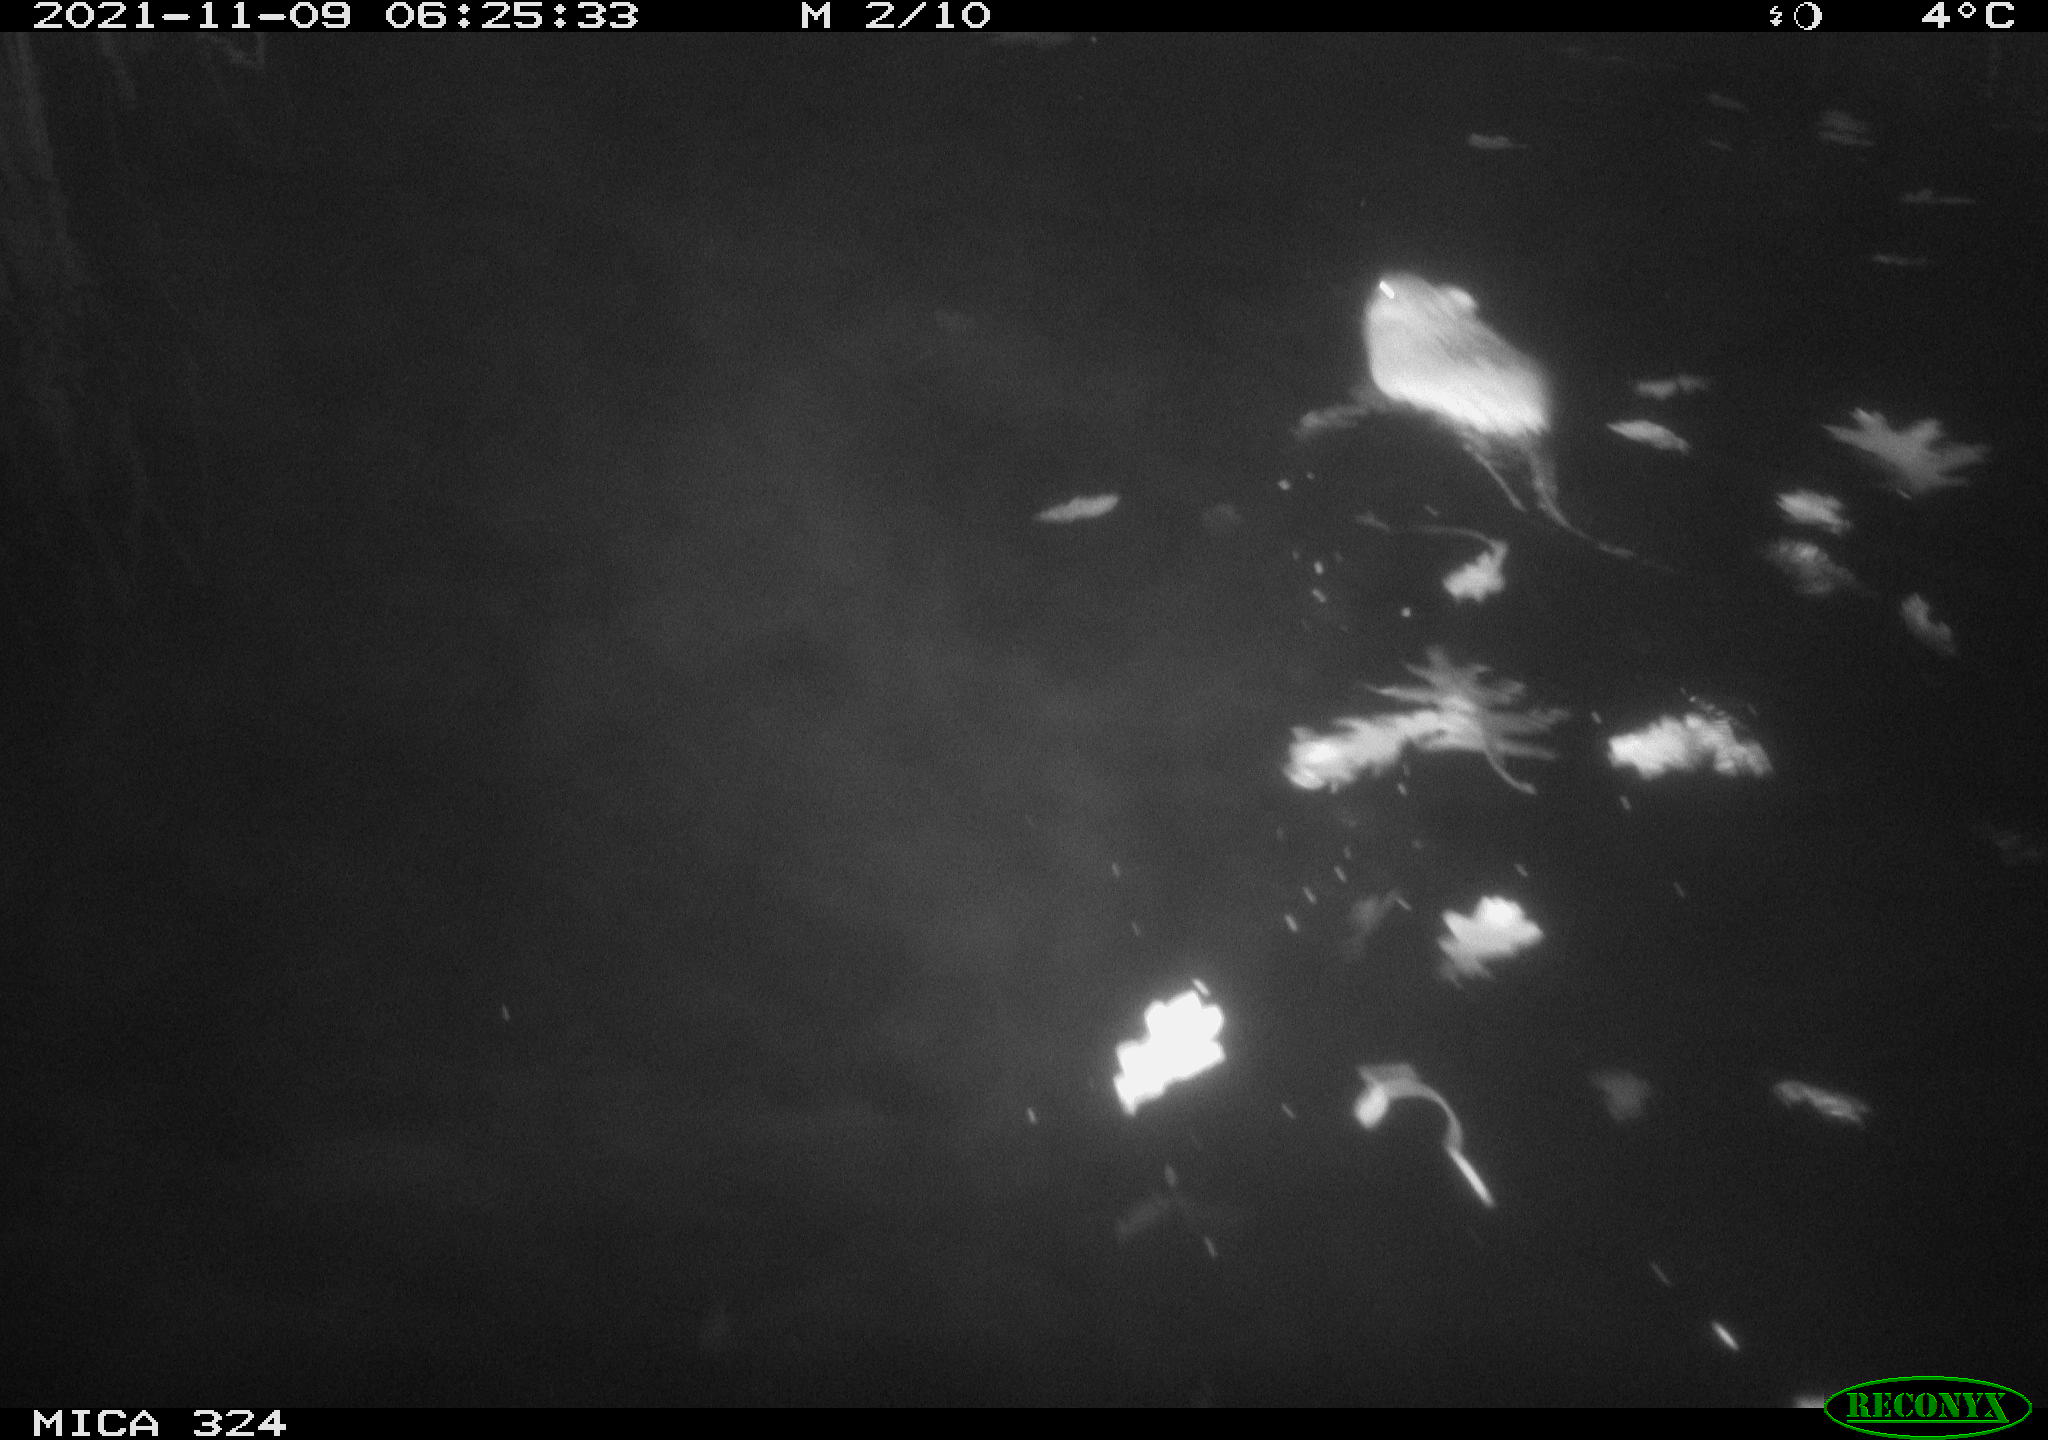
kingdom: Animalia
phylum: Chordata
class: Mammalia
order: Rodentia
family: Cricetidae
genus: Ondatra
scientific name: Ondatra zibethicus
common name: Muskrat
